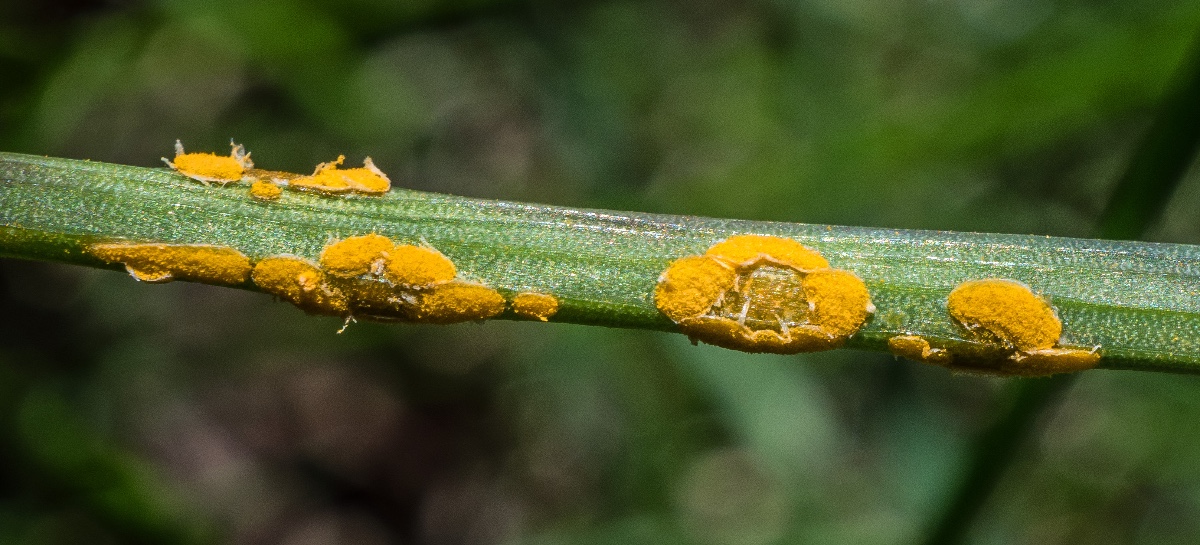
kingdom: Fungi
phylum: Basidiomycota
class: Pucciniomycetes
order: Pucciniales
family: Pucciniaceae
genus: Puccinia
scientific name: Puccinia porri
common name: Allium rust
